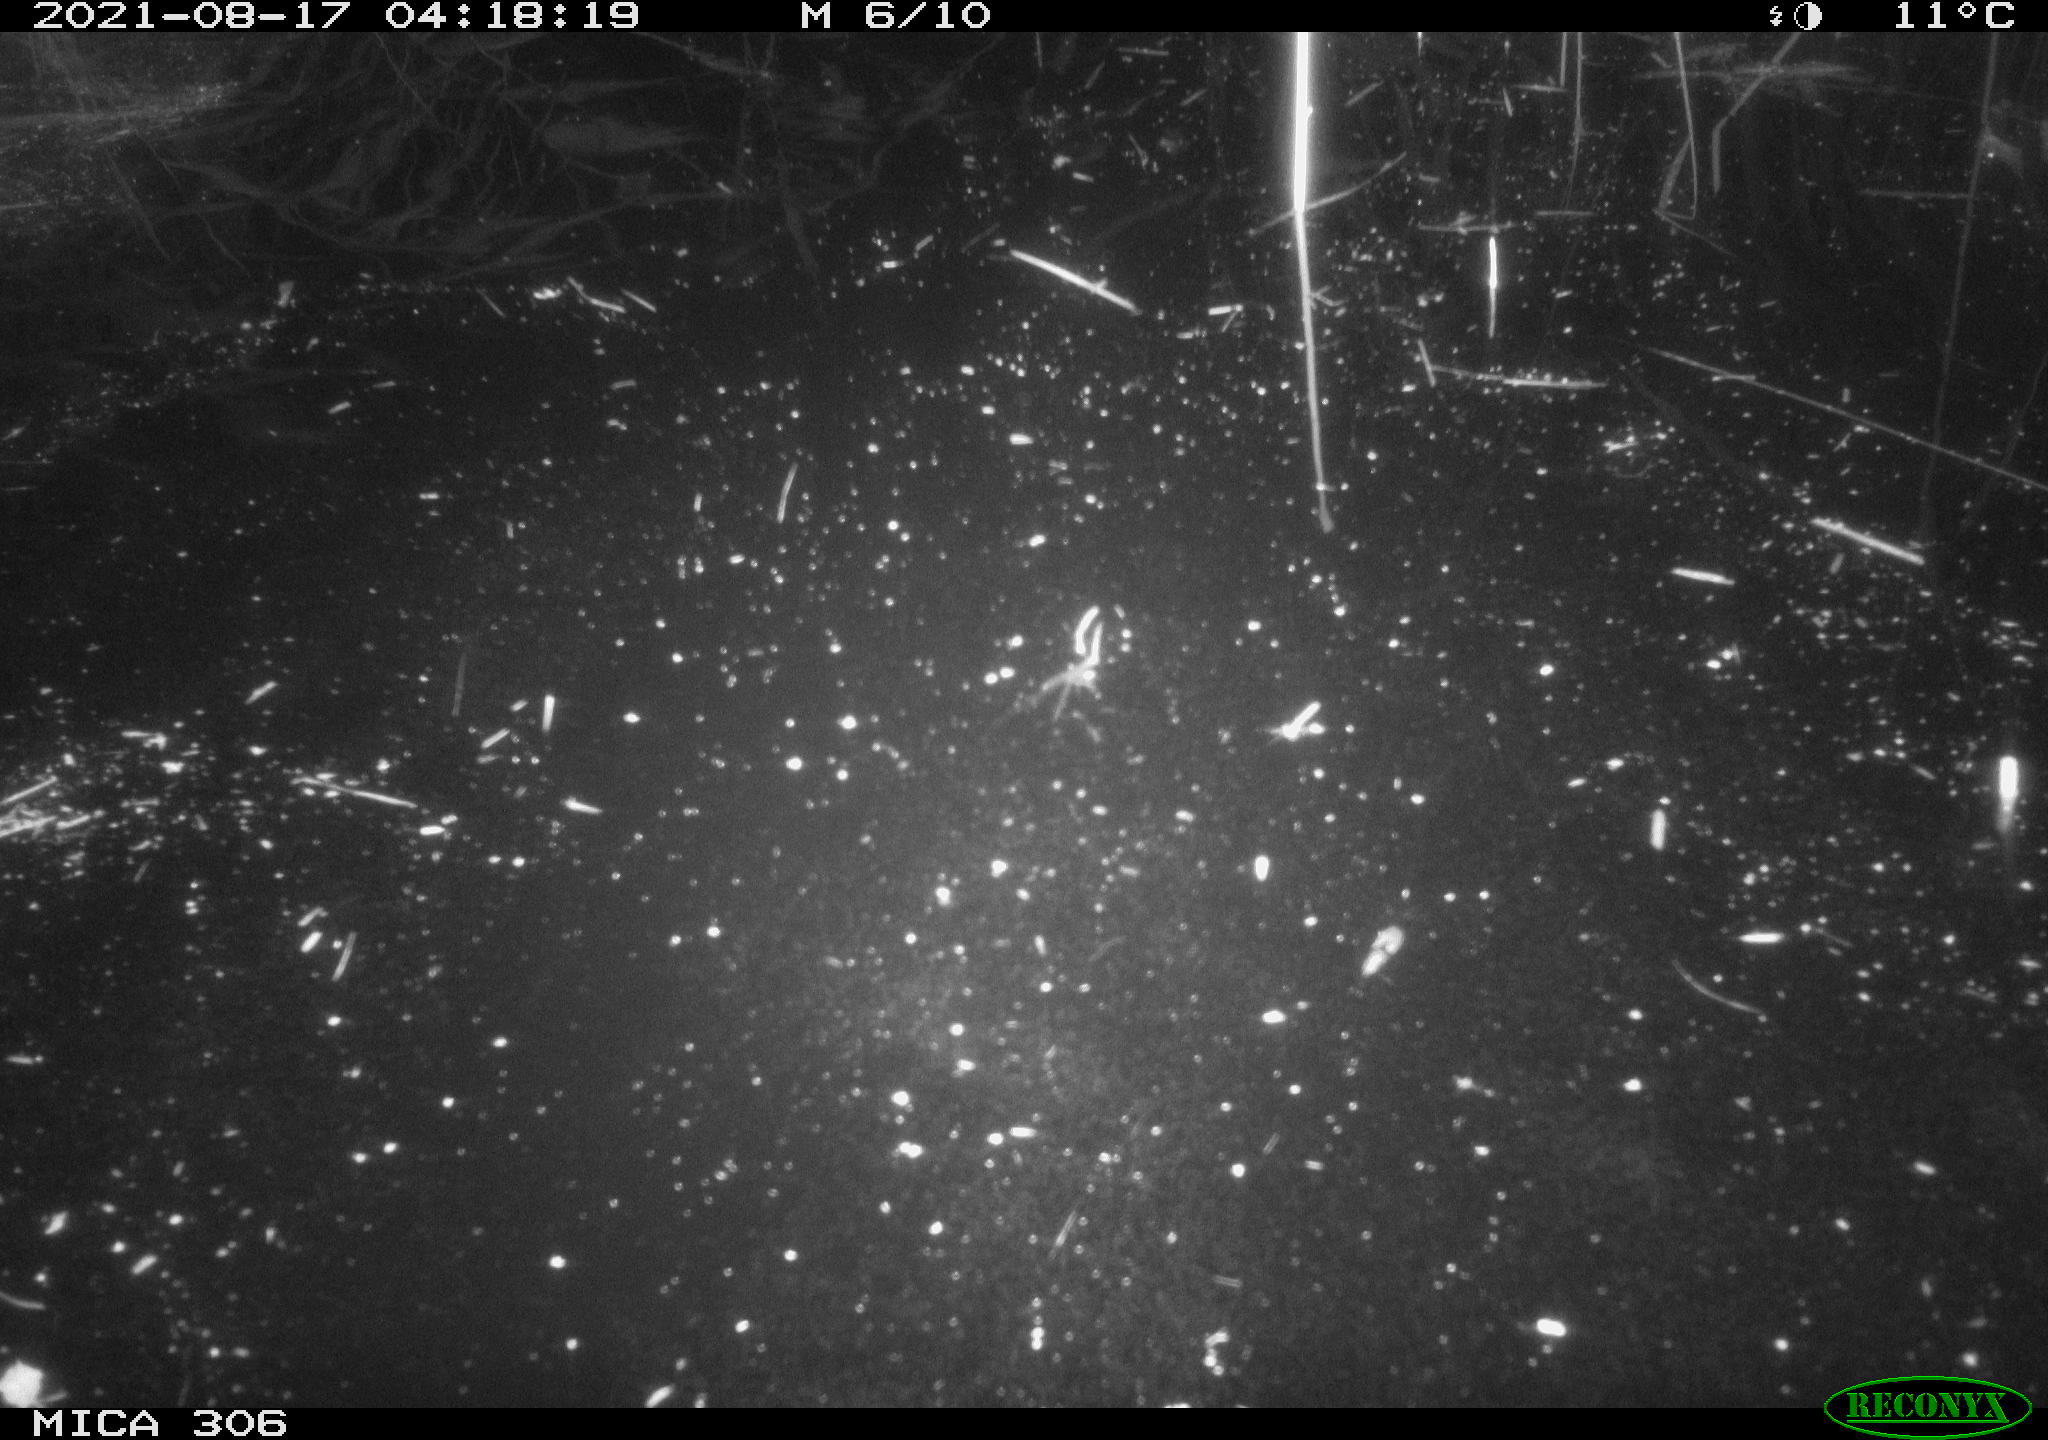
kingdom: Animalia
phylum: Chordata
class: Aves
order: Anseriformes
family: Anatidae
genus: Anas
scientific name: Anas platyrhynchos
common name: Mallard
